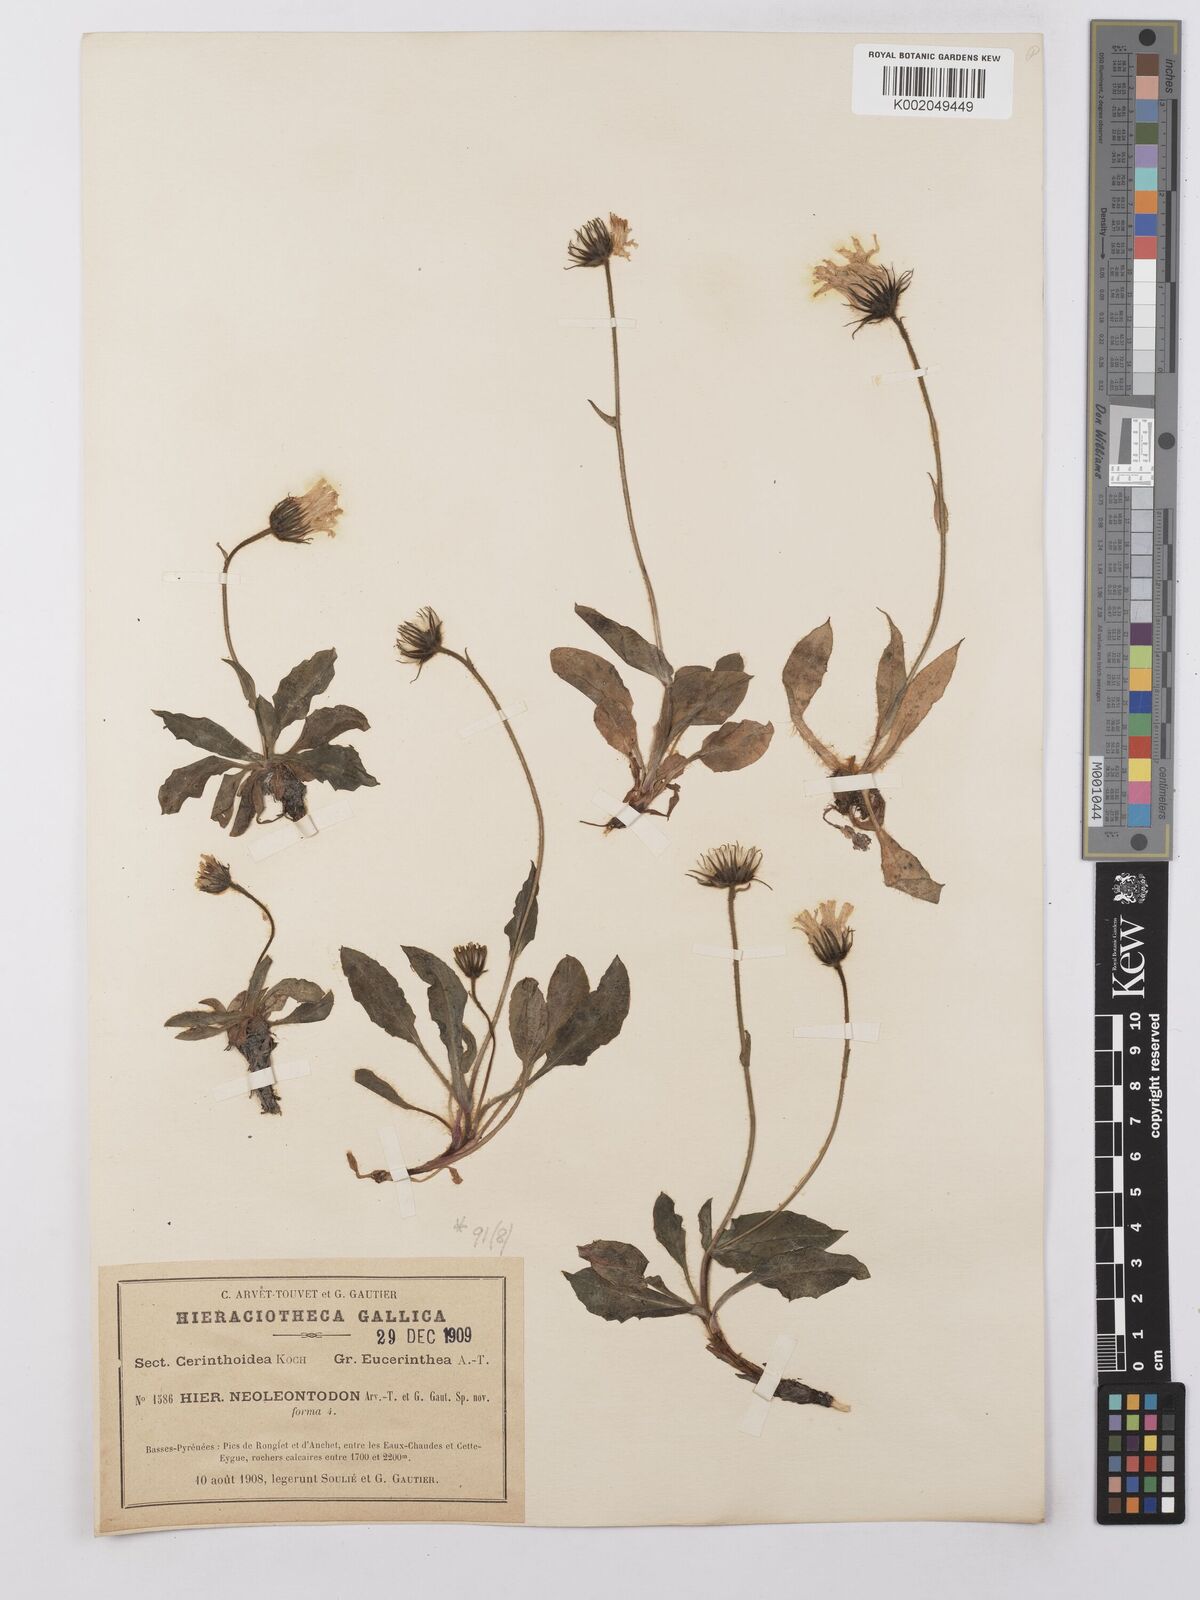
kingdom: Plantae
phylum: Tracheophyta
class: Magnoliopsida
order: Asterales
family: Asteraceae
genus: Hieracium
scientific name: Hieracium ramondii
